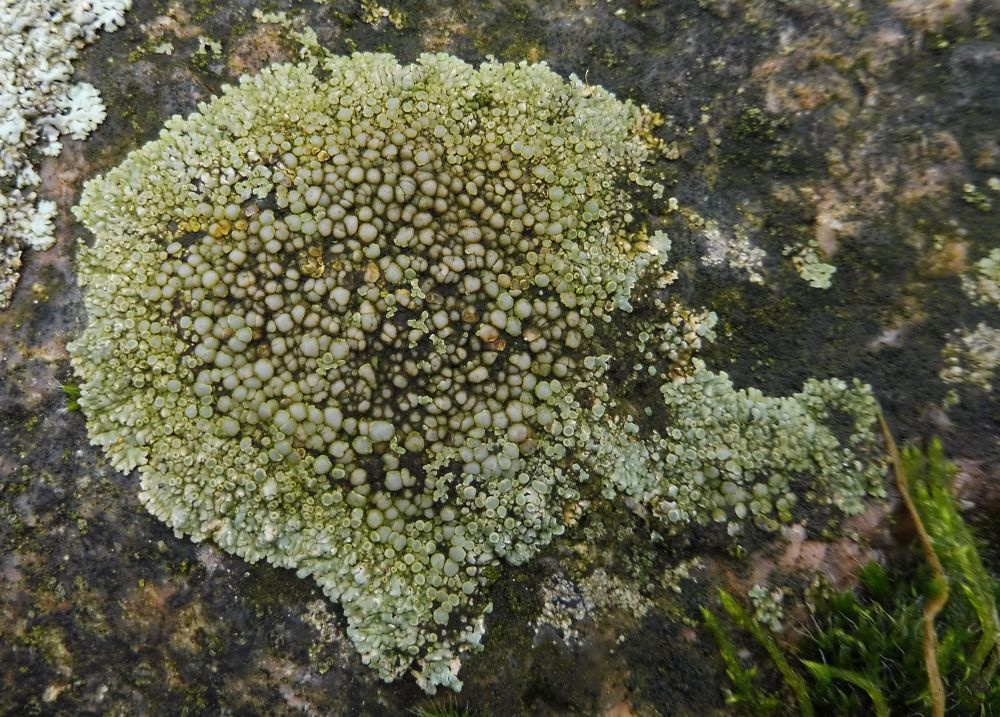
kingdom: Fungi
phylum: Ascomycota
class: Lecanoromycetes
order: Lecanorales
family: Lecanoraceae
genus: Protoparmeliopsis
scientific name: Protoparmeliopsis muralis
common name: randfliget kantskivelav
